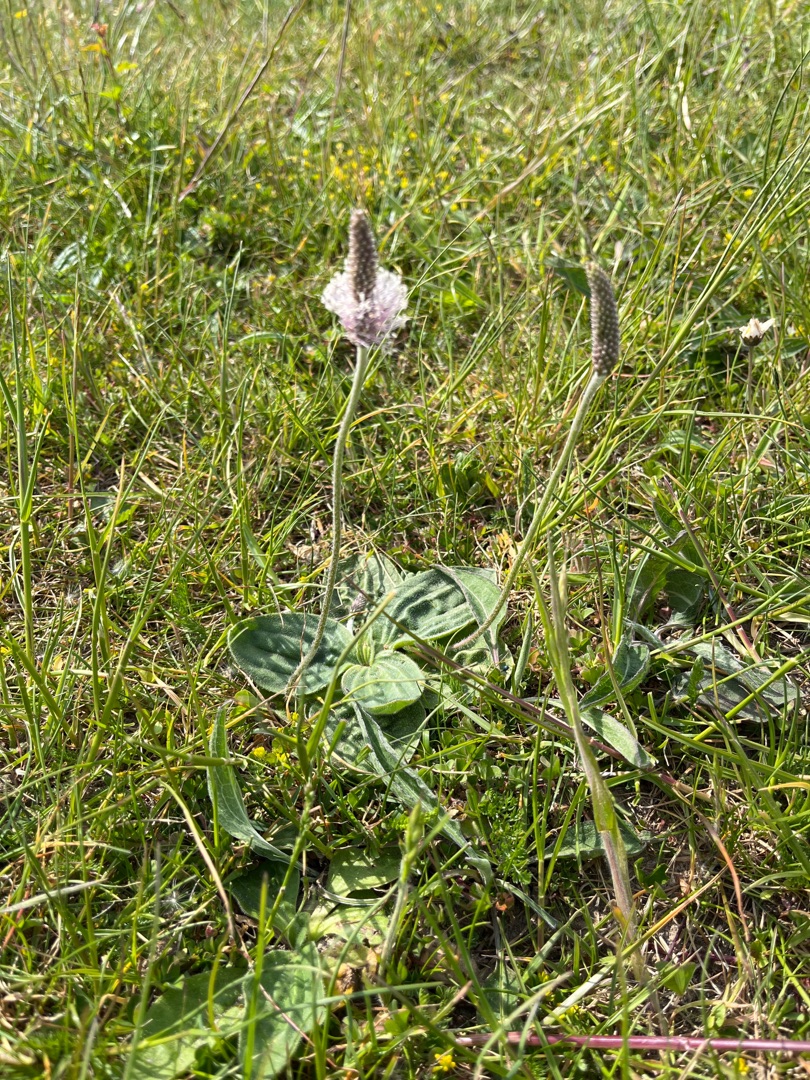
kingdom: Plantae
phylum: Tracheophyta
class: Magnoliopsida
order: Lamiales
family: Plantaginaceae
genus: Plantago
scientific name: Plantago media
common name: Dunet vejbred
